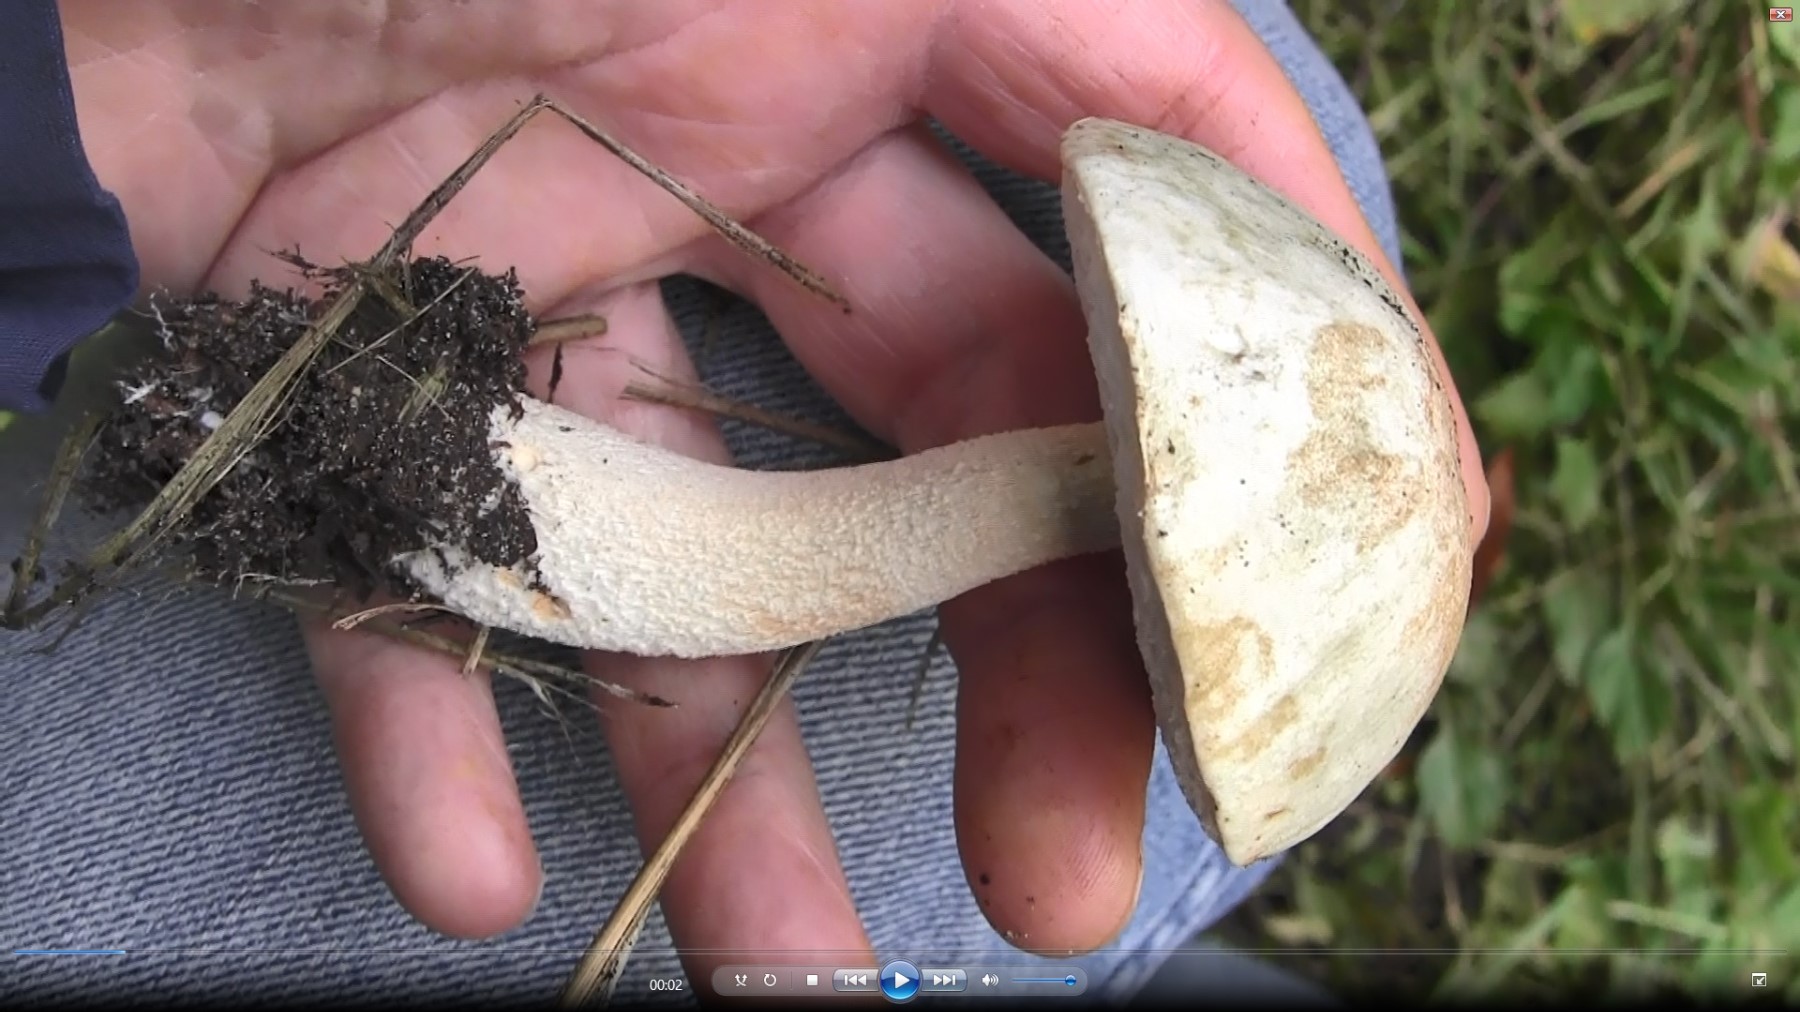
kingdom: Fungi
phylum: Basidiomycota
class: Agaricomycetes
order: Boletales
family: Boletaceae
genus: Leccinum
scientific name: Leccinum cyaneobasileucum
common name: almindelig skælrørhat
